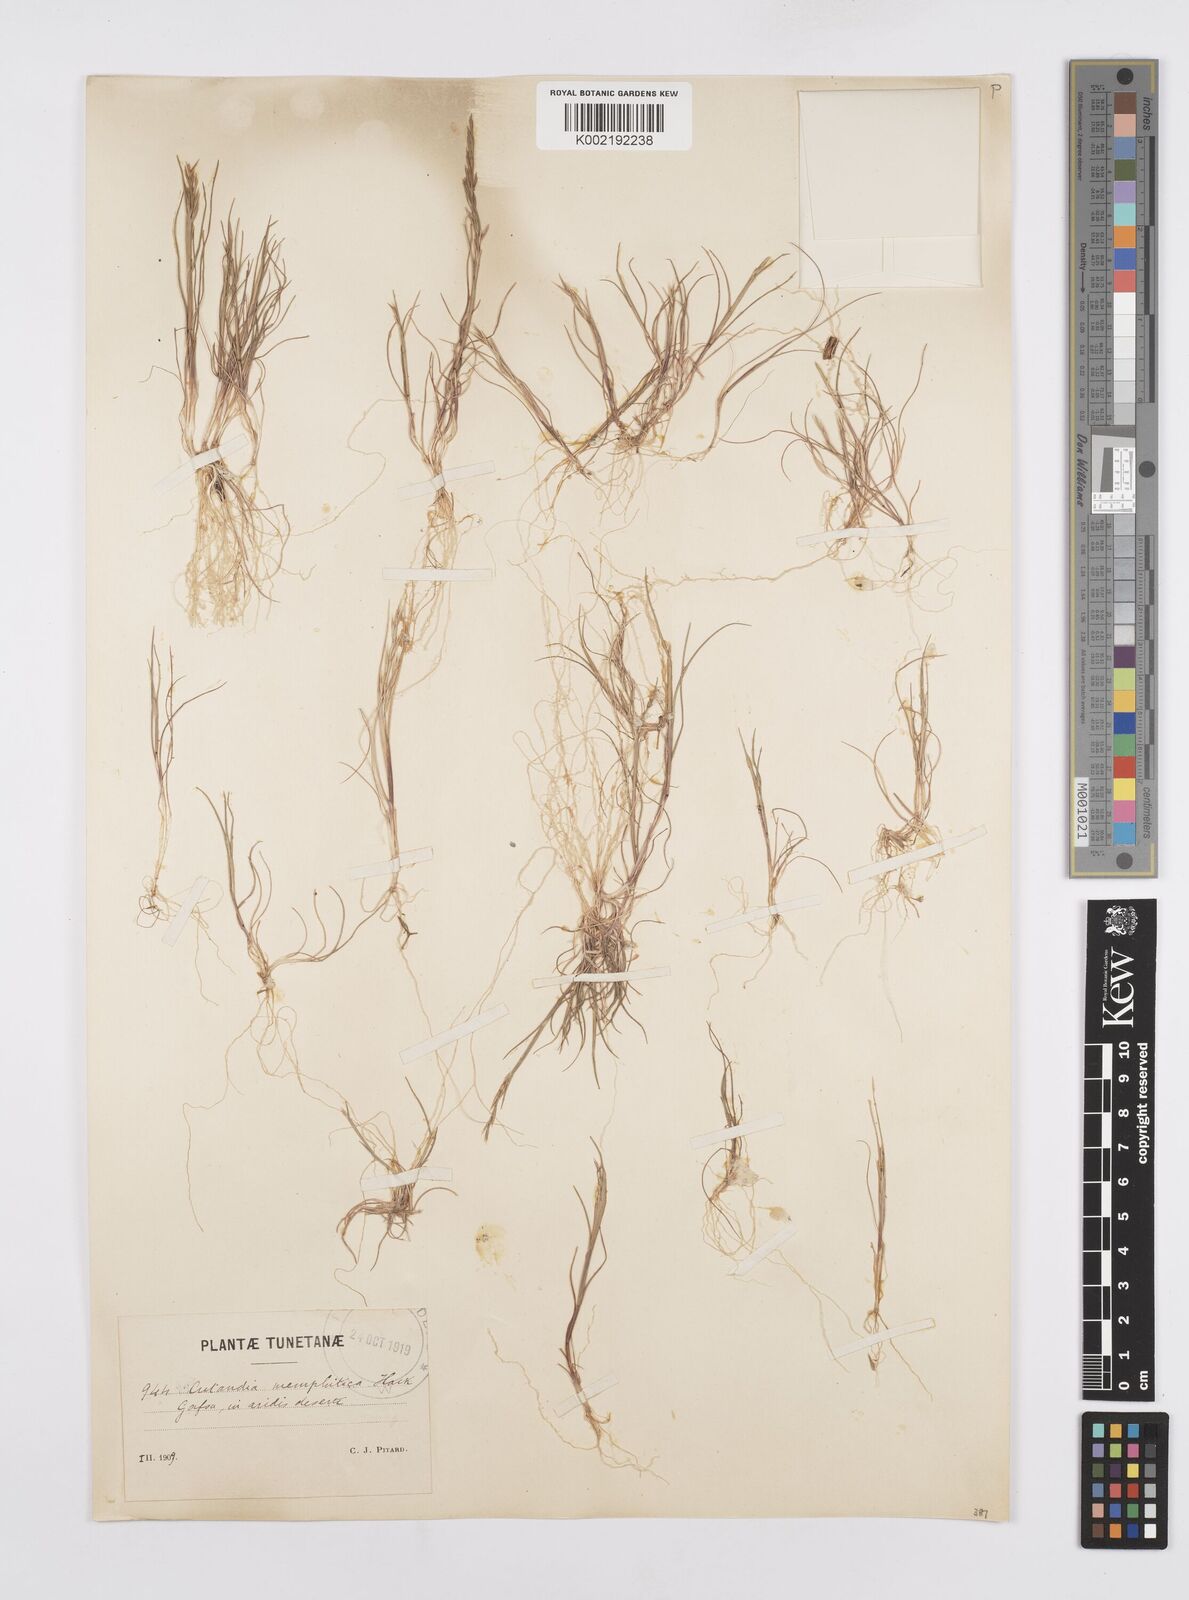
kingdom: Plantae
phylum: Tracheophyta
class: Liliopsida
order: Poales
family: Poaceae
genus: Cutandia
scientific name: Cutandia memphitica
